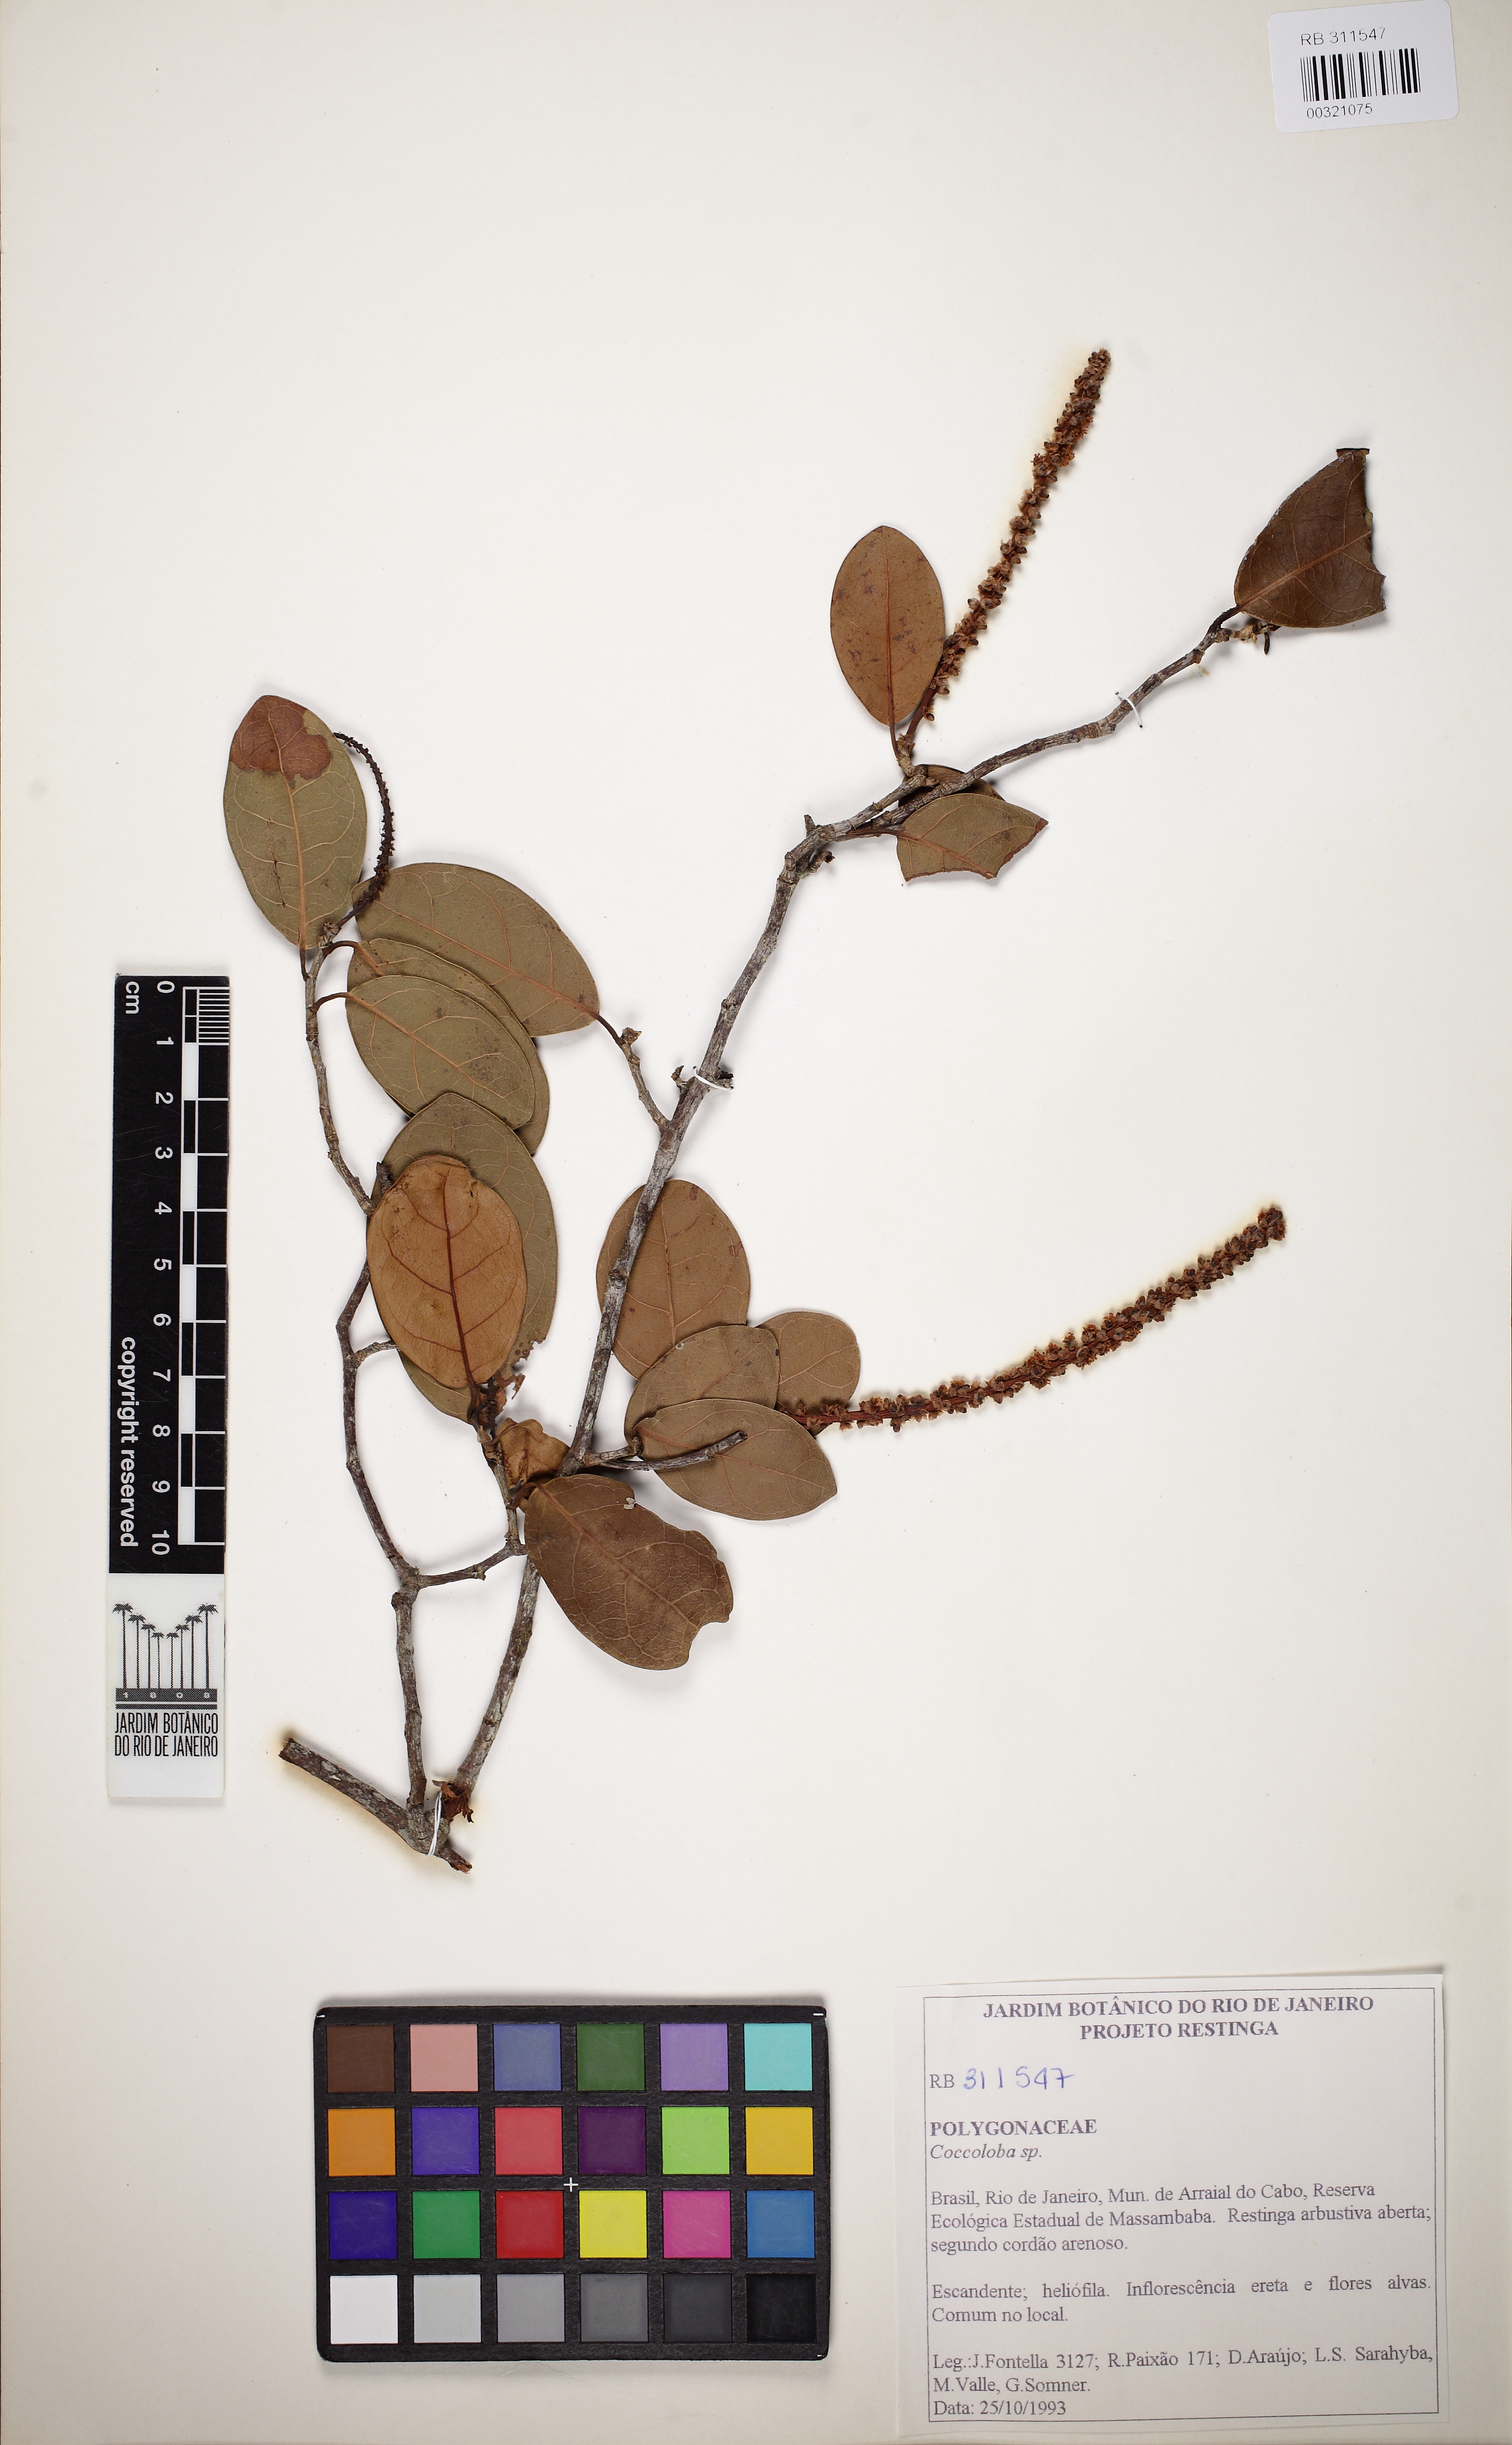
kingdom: Plantae
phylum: Tracheophyta
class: Magnoliopsida
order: Caryophyllales
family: Polygonaceae
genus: Coccoloba
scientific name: Coccoloba
